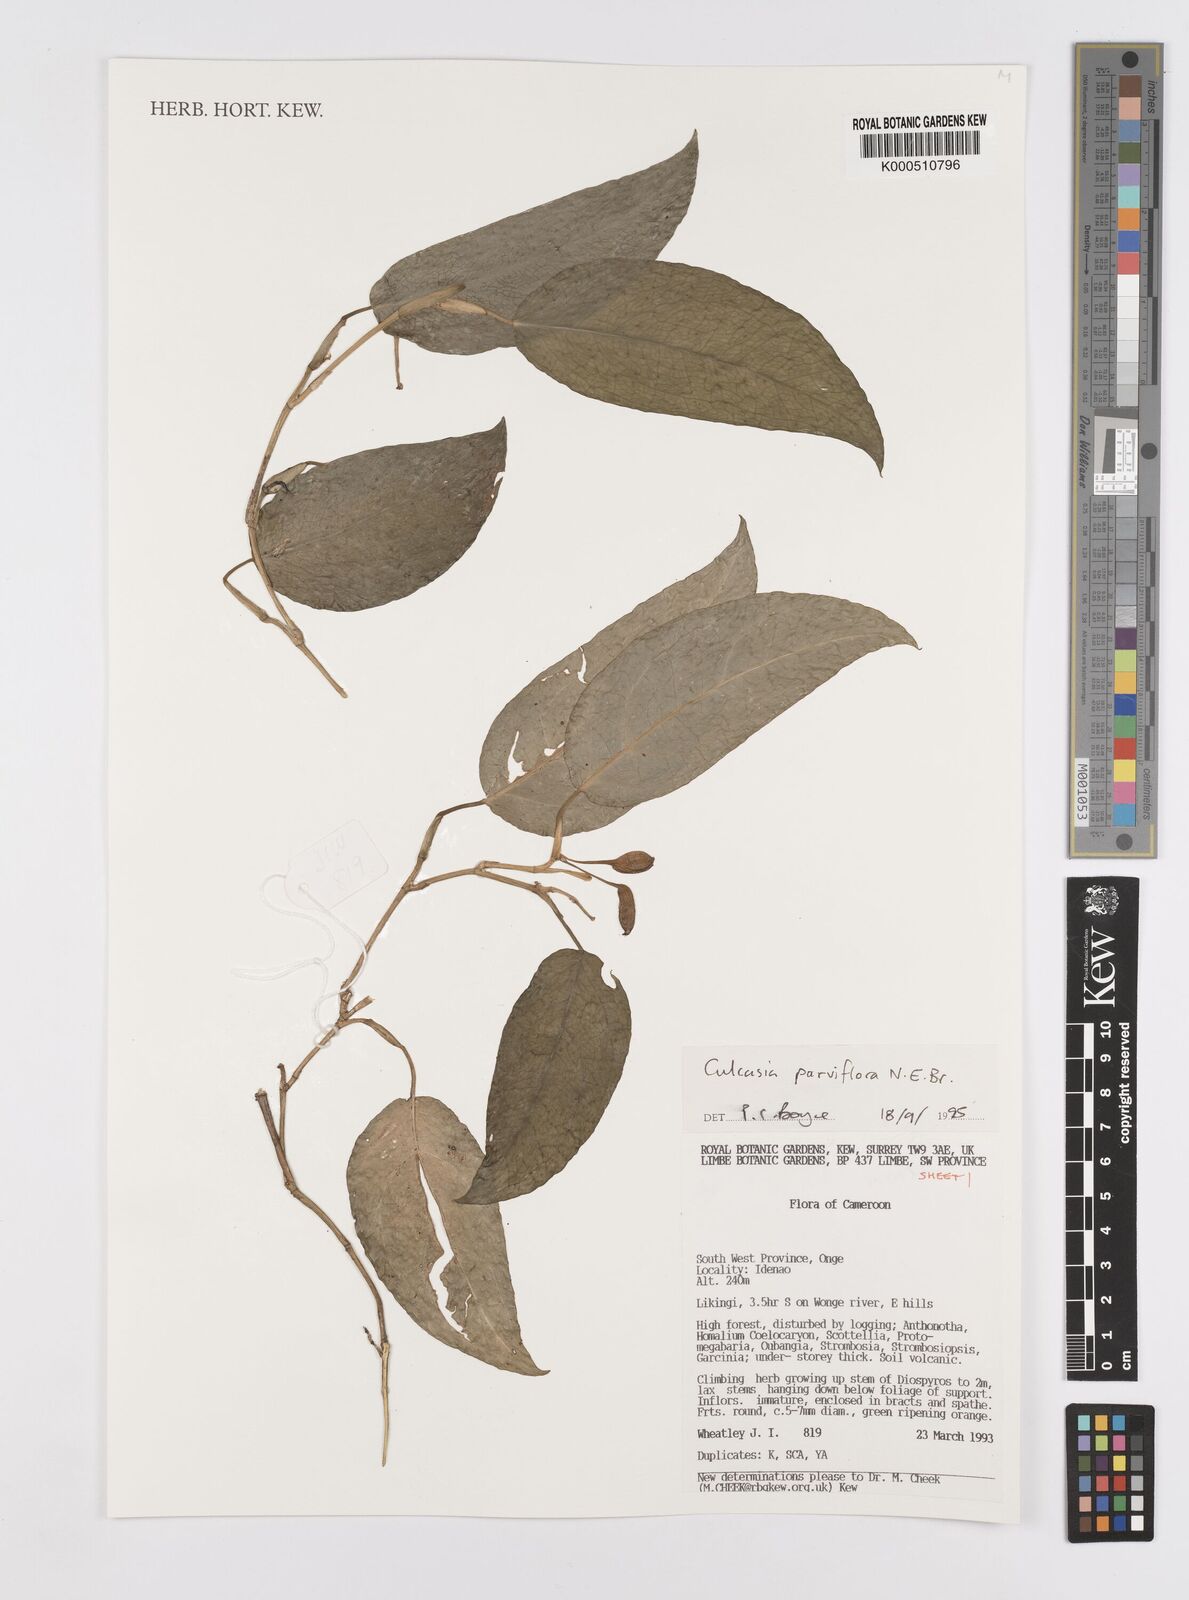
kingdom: Plantae
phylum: Tracheophyta
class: Liliopsida
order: Alismatales
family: Araceae
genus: Culcasia
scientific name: Culcasia parviflora
